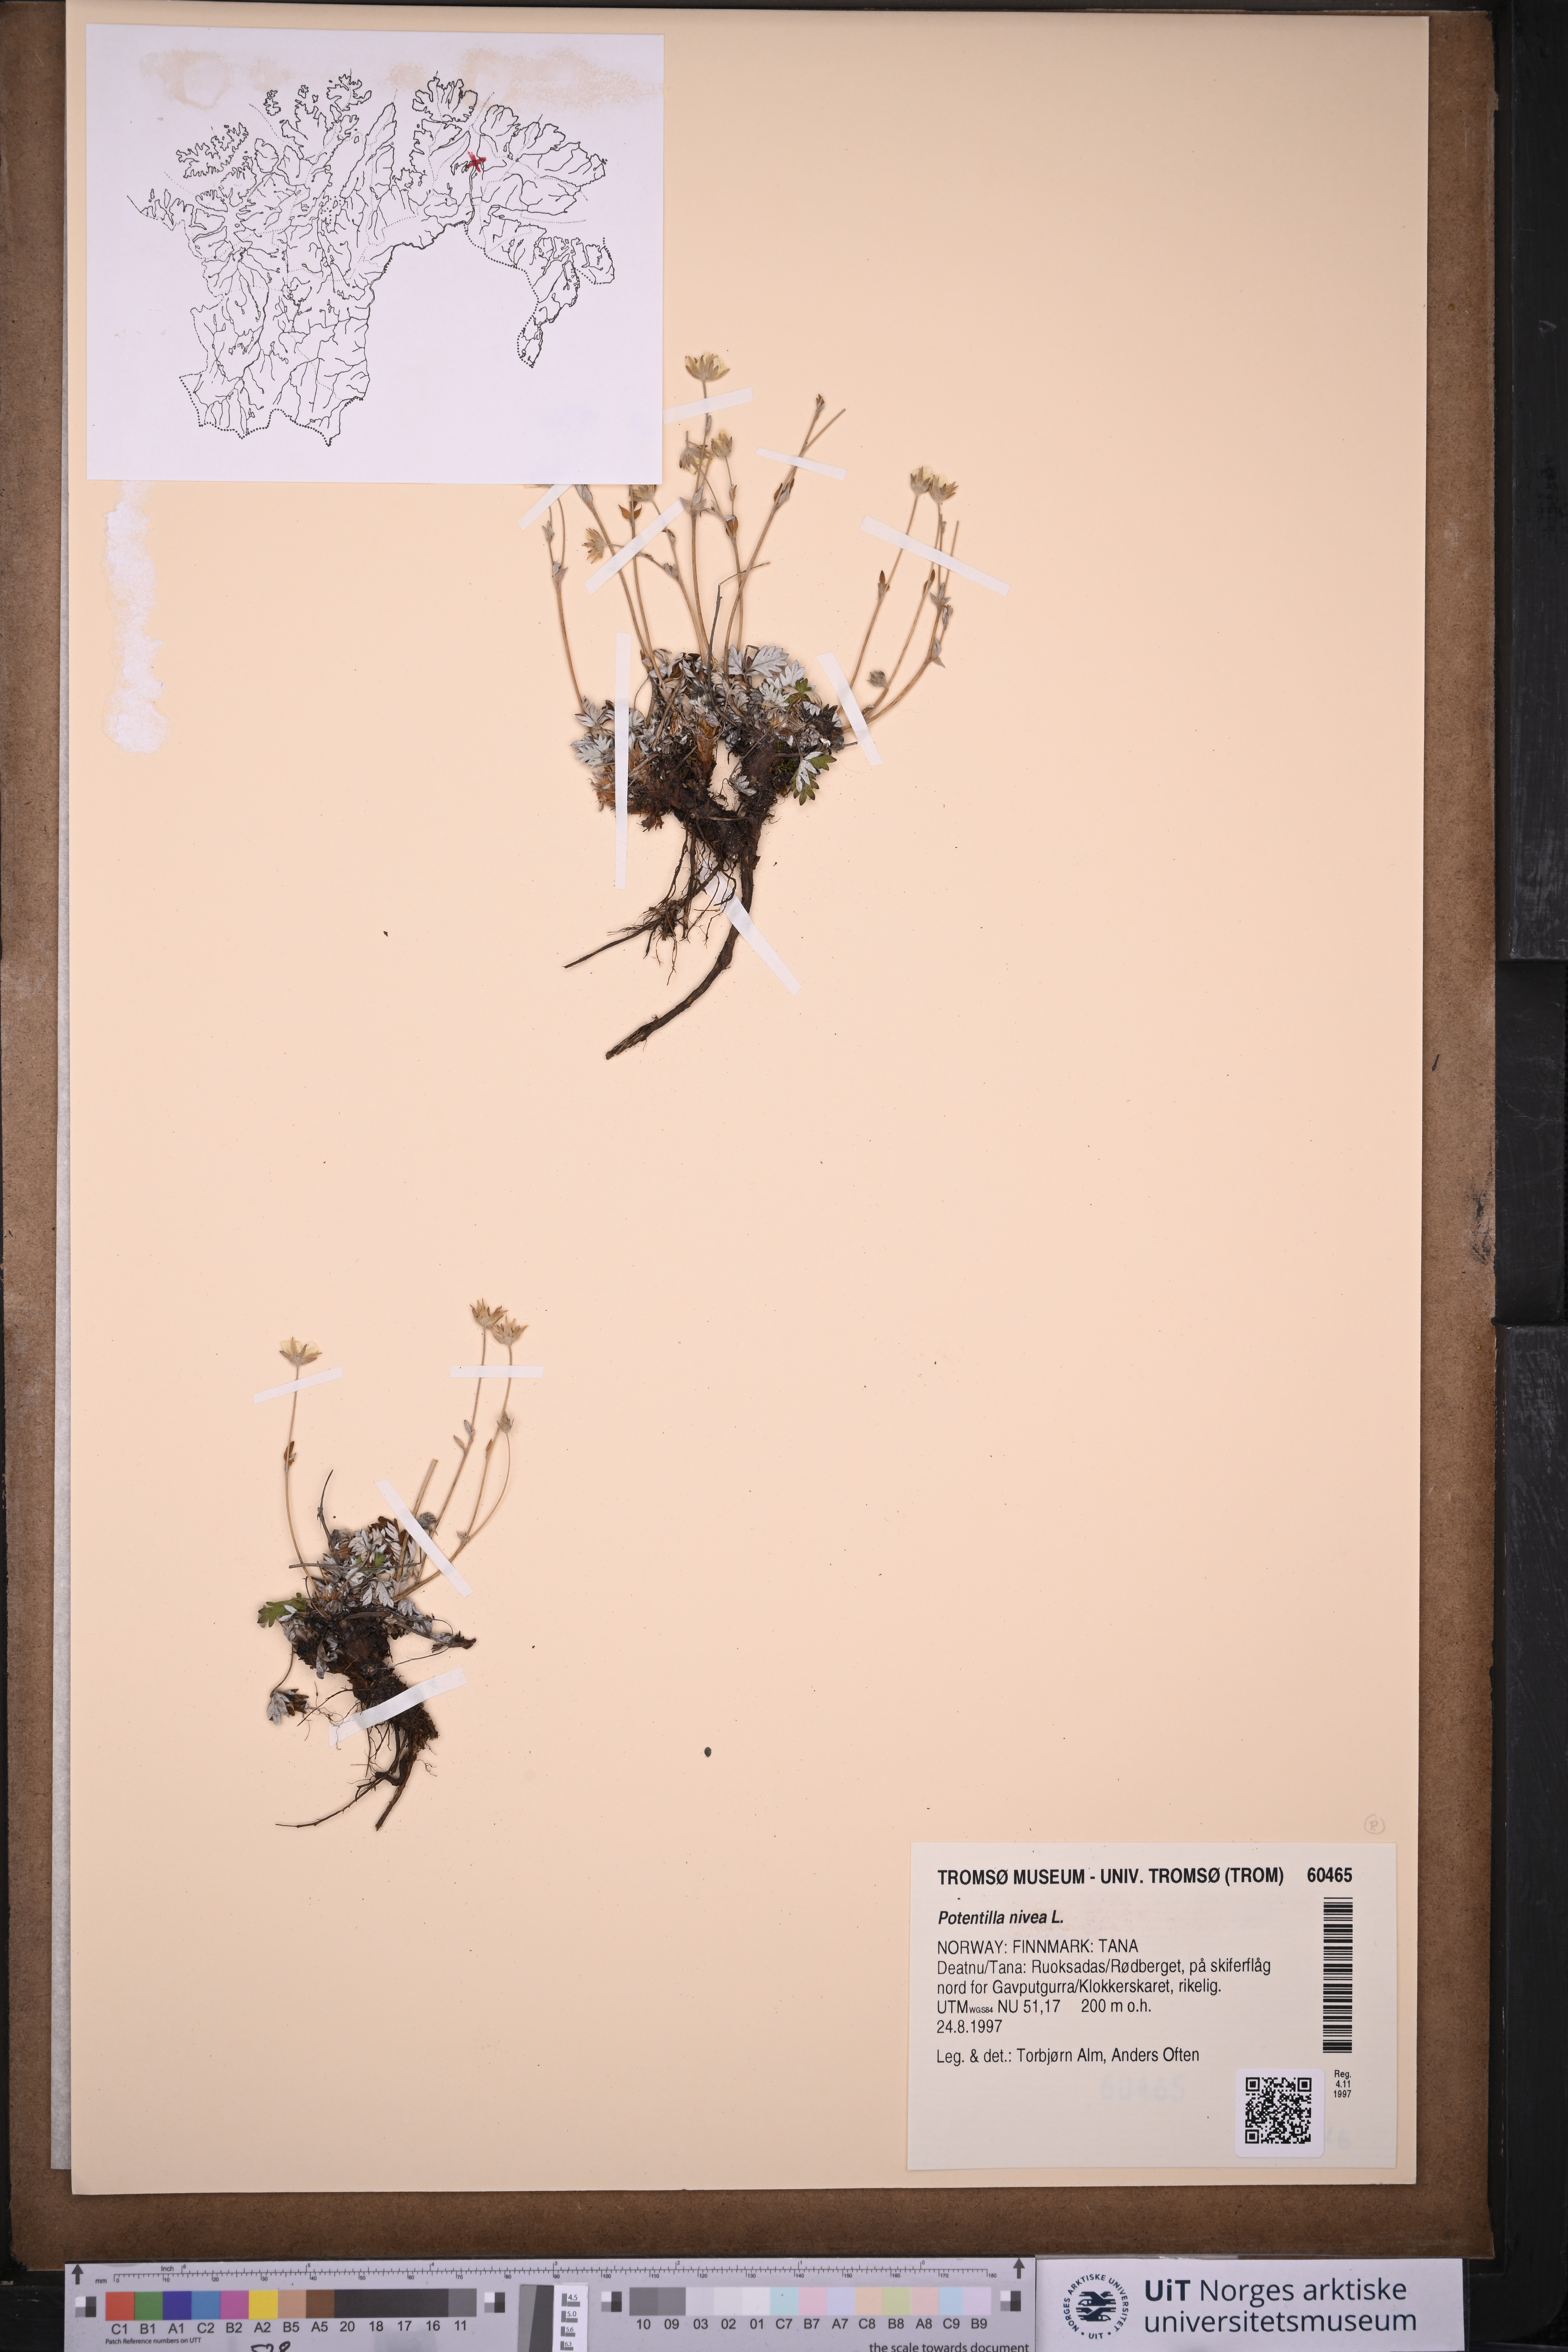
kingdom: Plantae
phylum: Tracheophyta
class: Magnoliopsida
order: Rosales
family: Rosaceae
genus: Potentilla
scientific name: Potentilla arenosa
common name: Bluff cinquefoil
